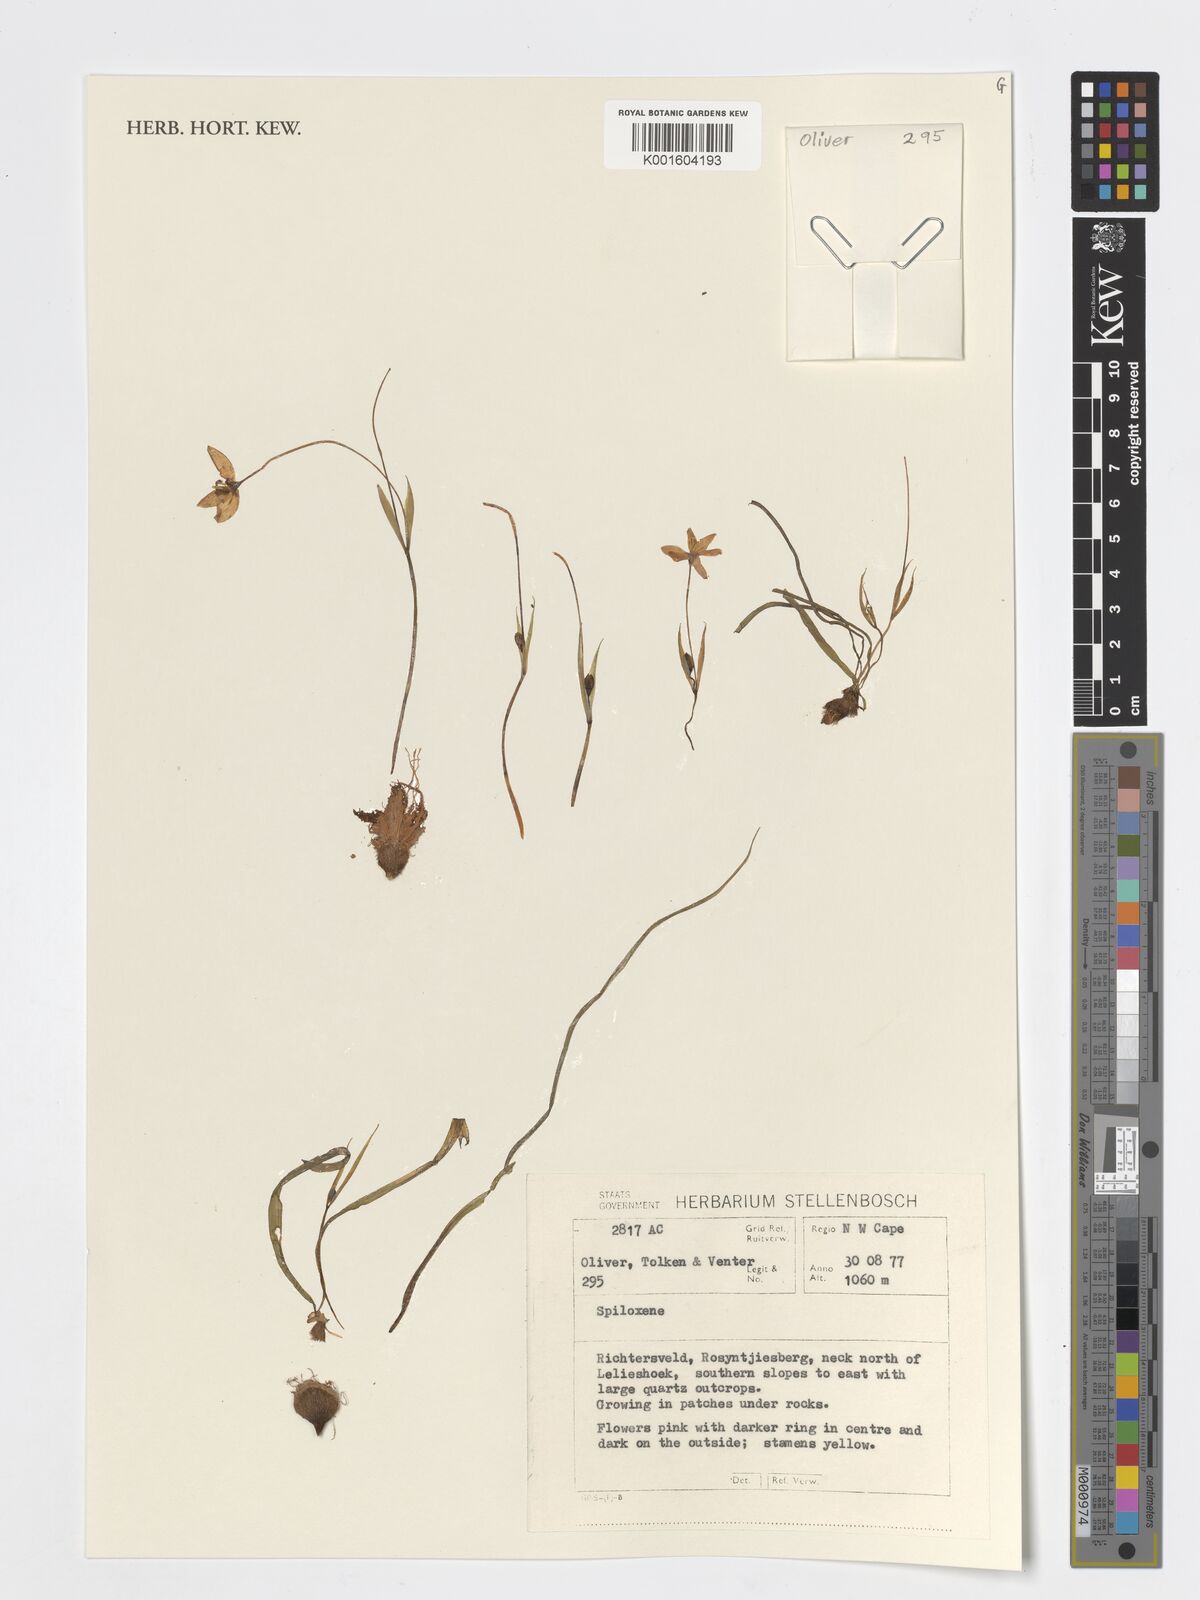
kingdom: Plantae
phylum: Tracheophyta
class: Liliopsida
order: Asparagales
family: Hypoxidaceae
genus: Pauridia
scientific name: Pauridia Spiloxene spec
